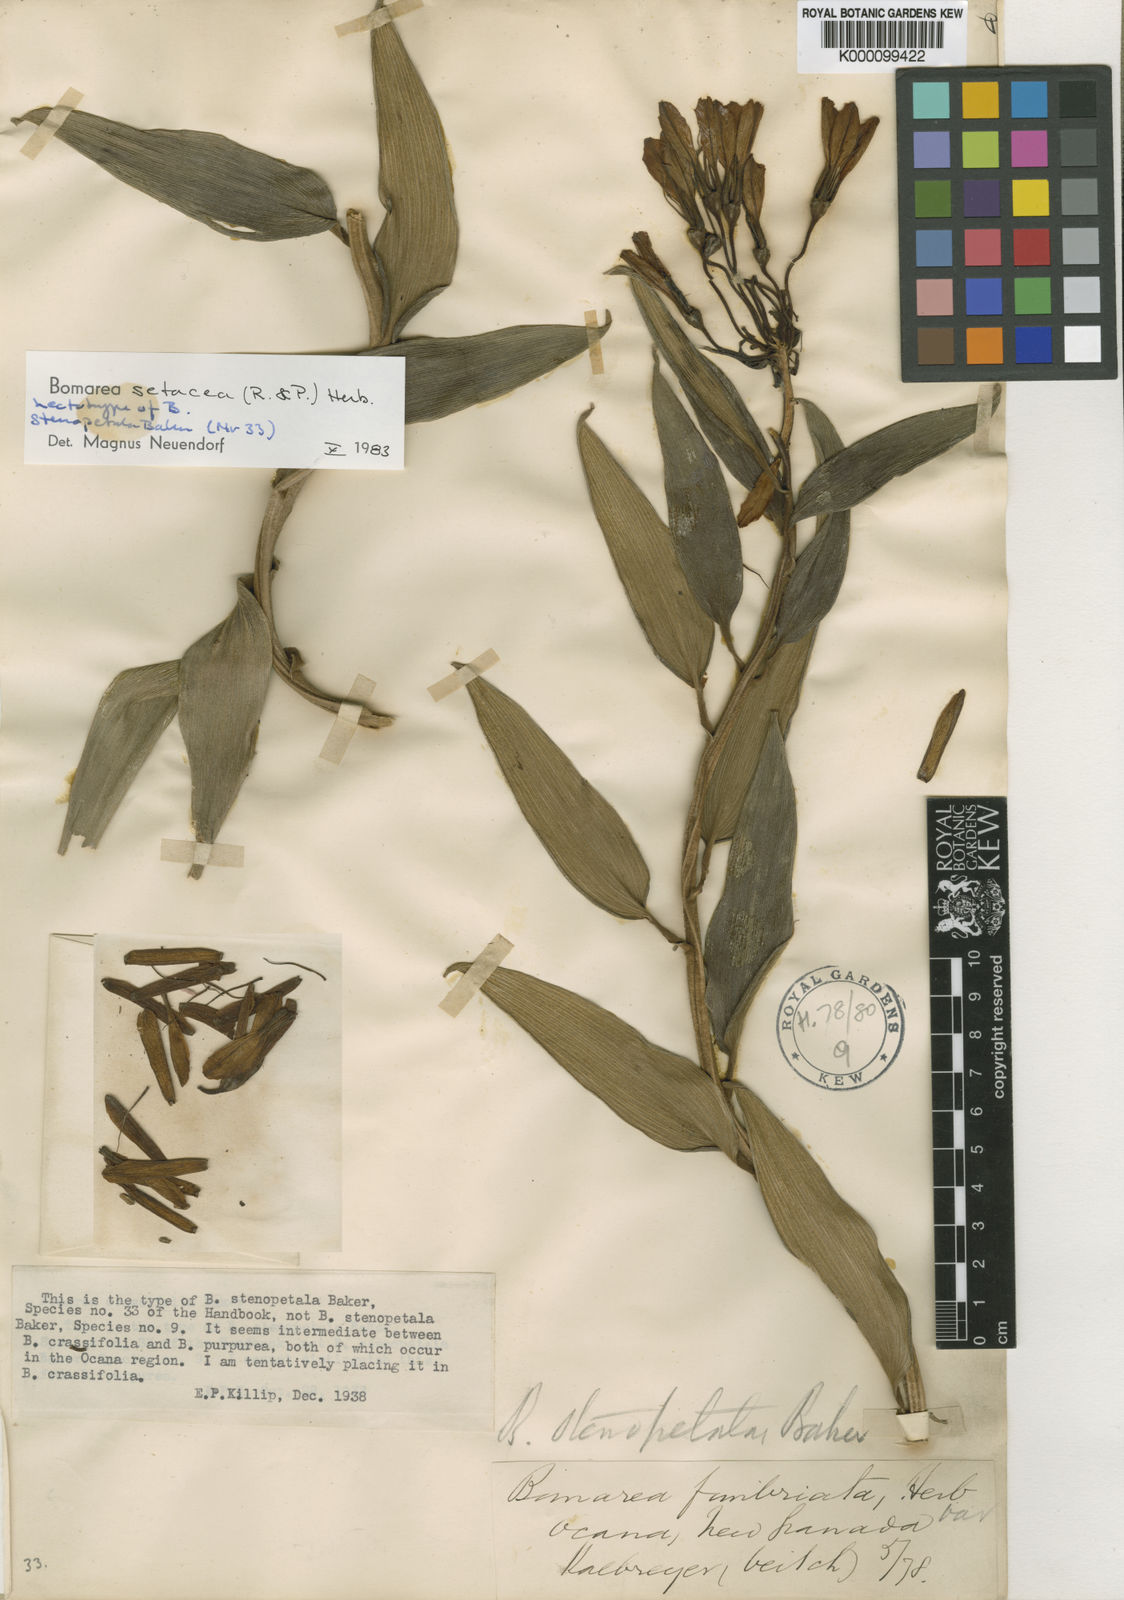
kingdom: Plantae
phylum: Tracheophyta
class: Liliopsida
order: Liliales
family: Alstroemeriaceae
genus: Bomarea
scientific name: Bomarea setacea
